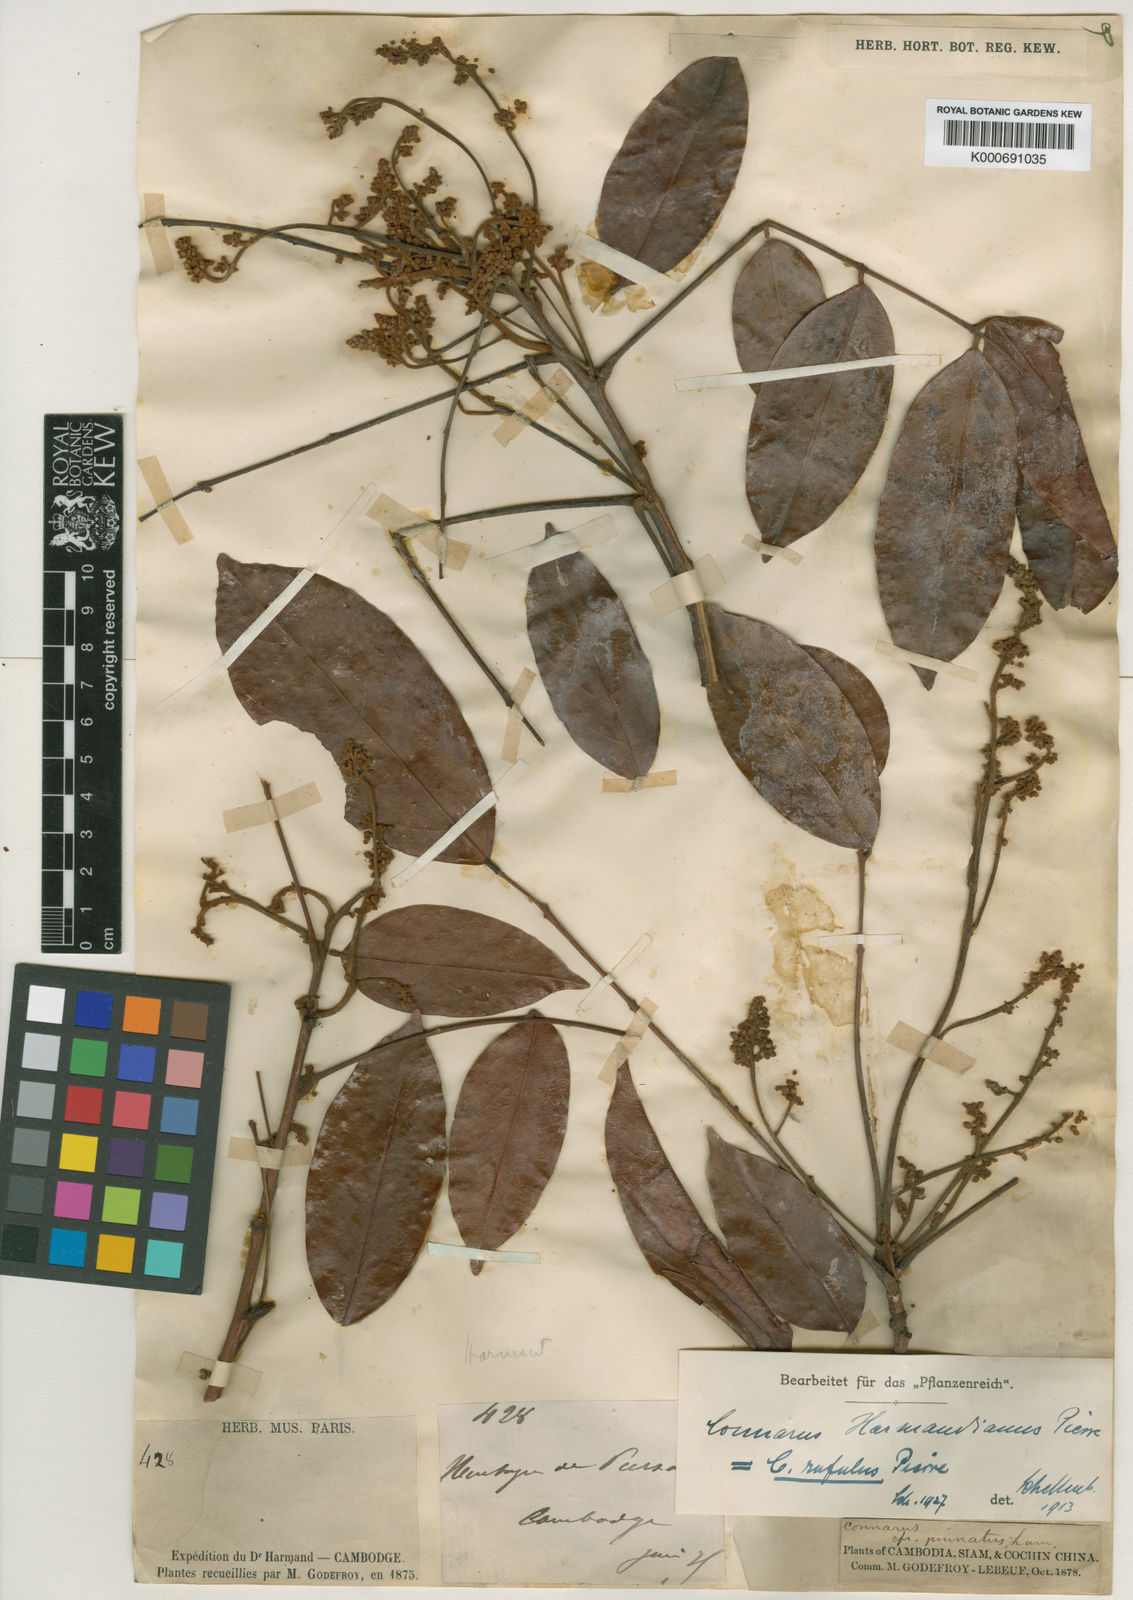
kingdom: Plantae
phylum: Tracheophyta
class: Magnoliopsida
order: Oxalidales
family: Connaraceae
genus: Connarus
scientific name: Connarus paniculatus
